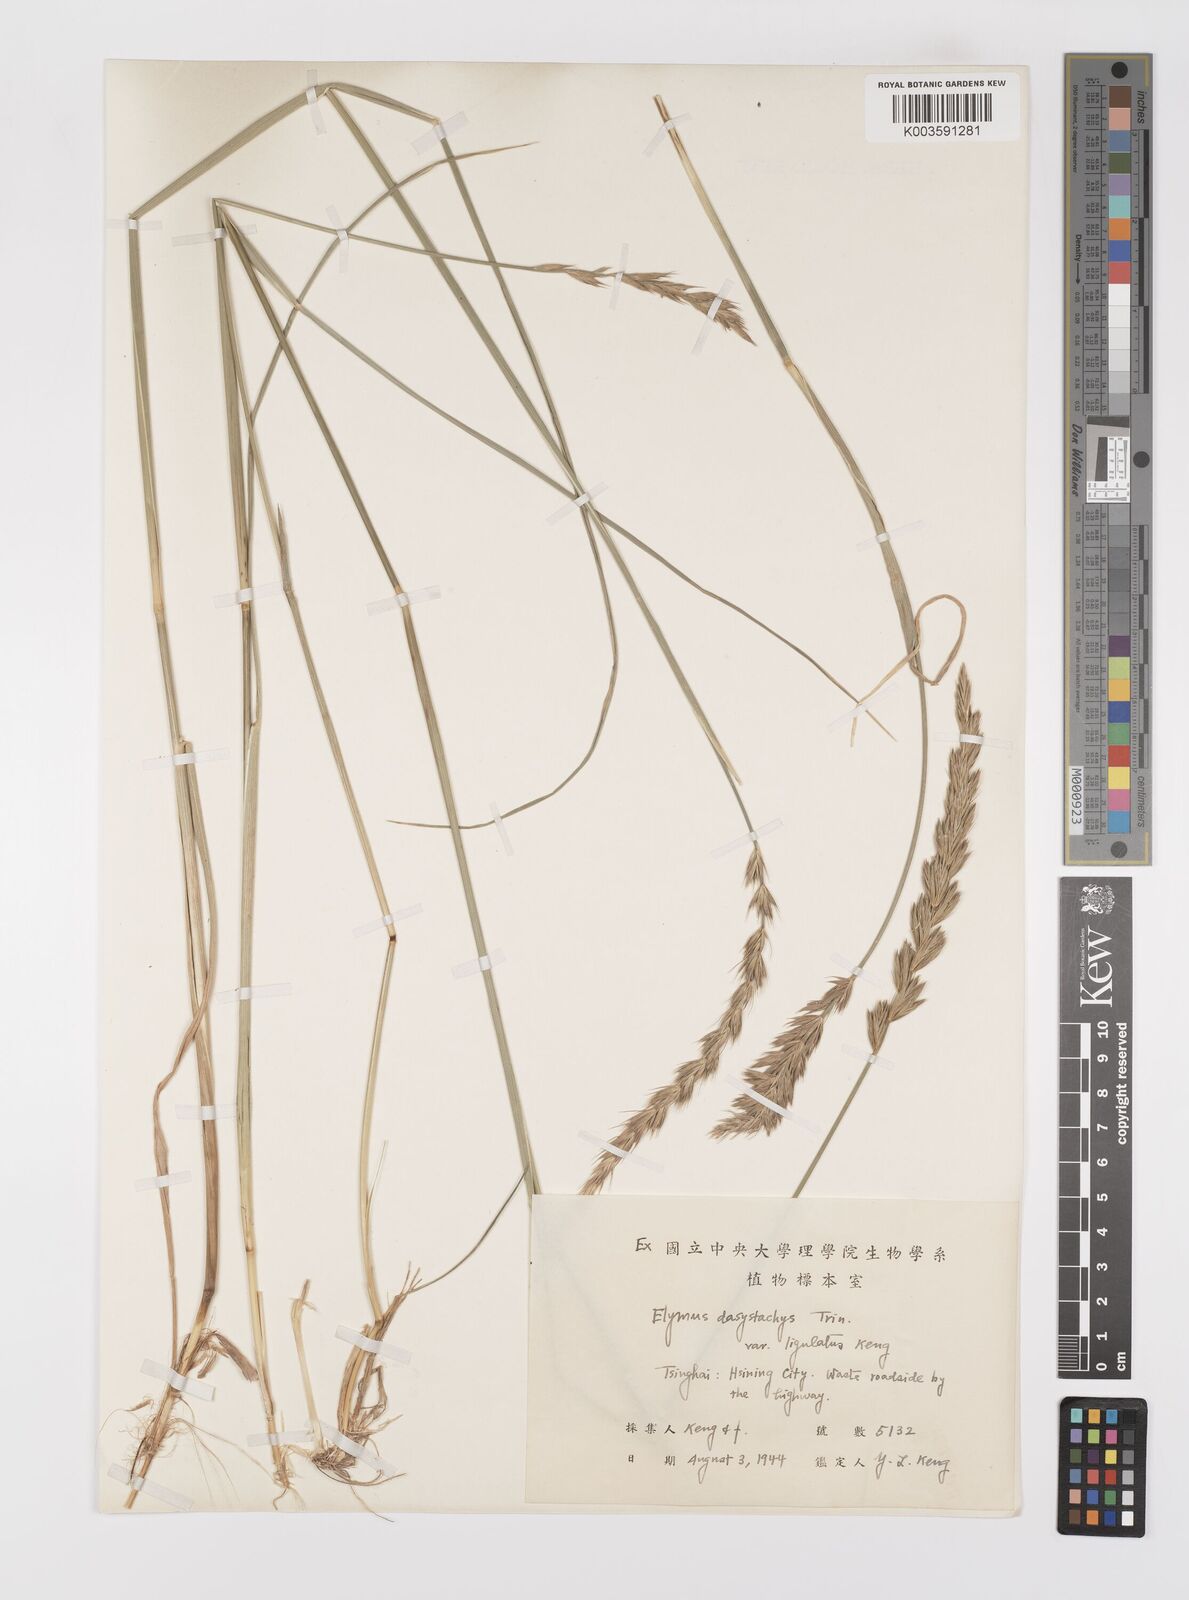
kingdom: Plantae
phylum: Tracheophyta
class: Liliopsida
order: Poales
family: Poaceae
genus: Leymus
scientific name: Leymus secalinus
